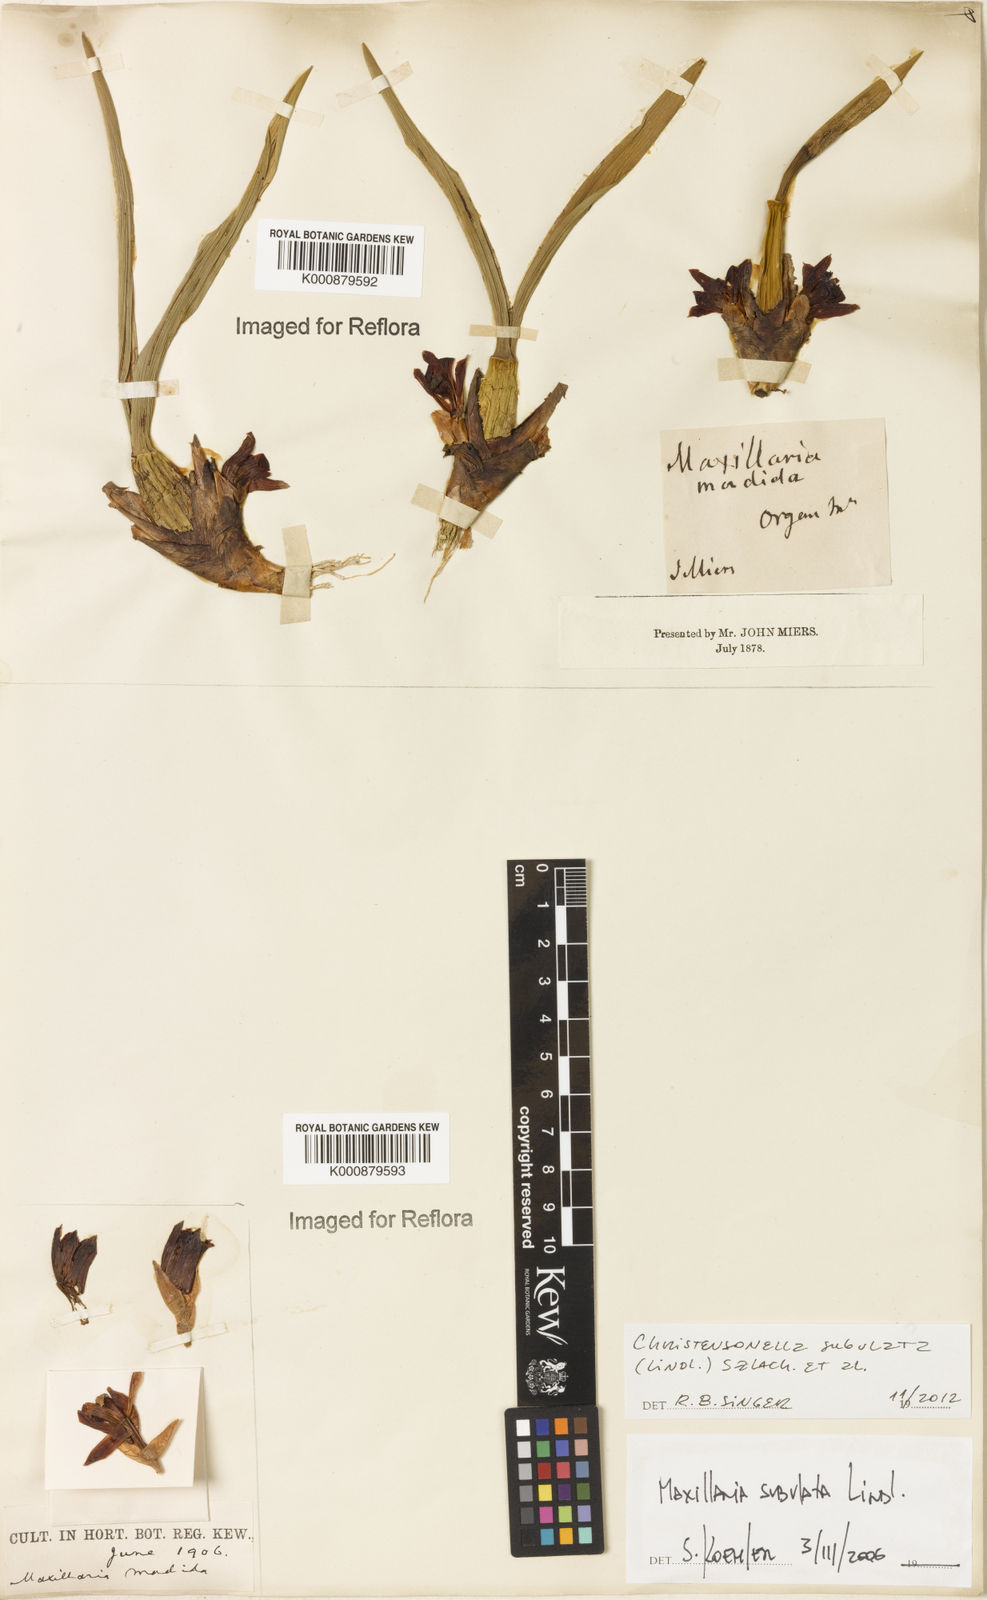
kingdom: Plantae
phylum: Tracheophyta
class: Liliopsida
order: Asparagales
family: Orchidaceae
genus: Maxillaria
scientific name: Maxillaria subulata
